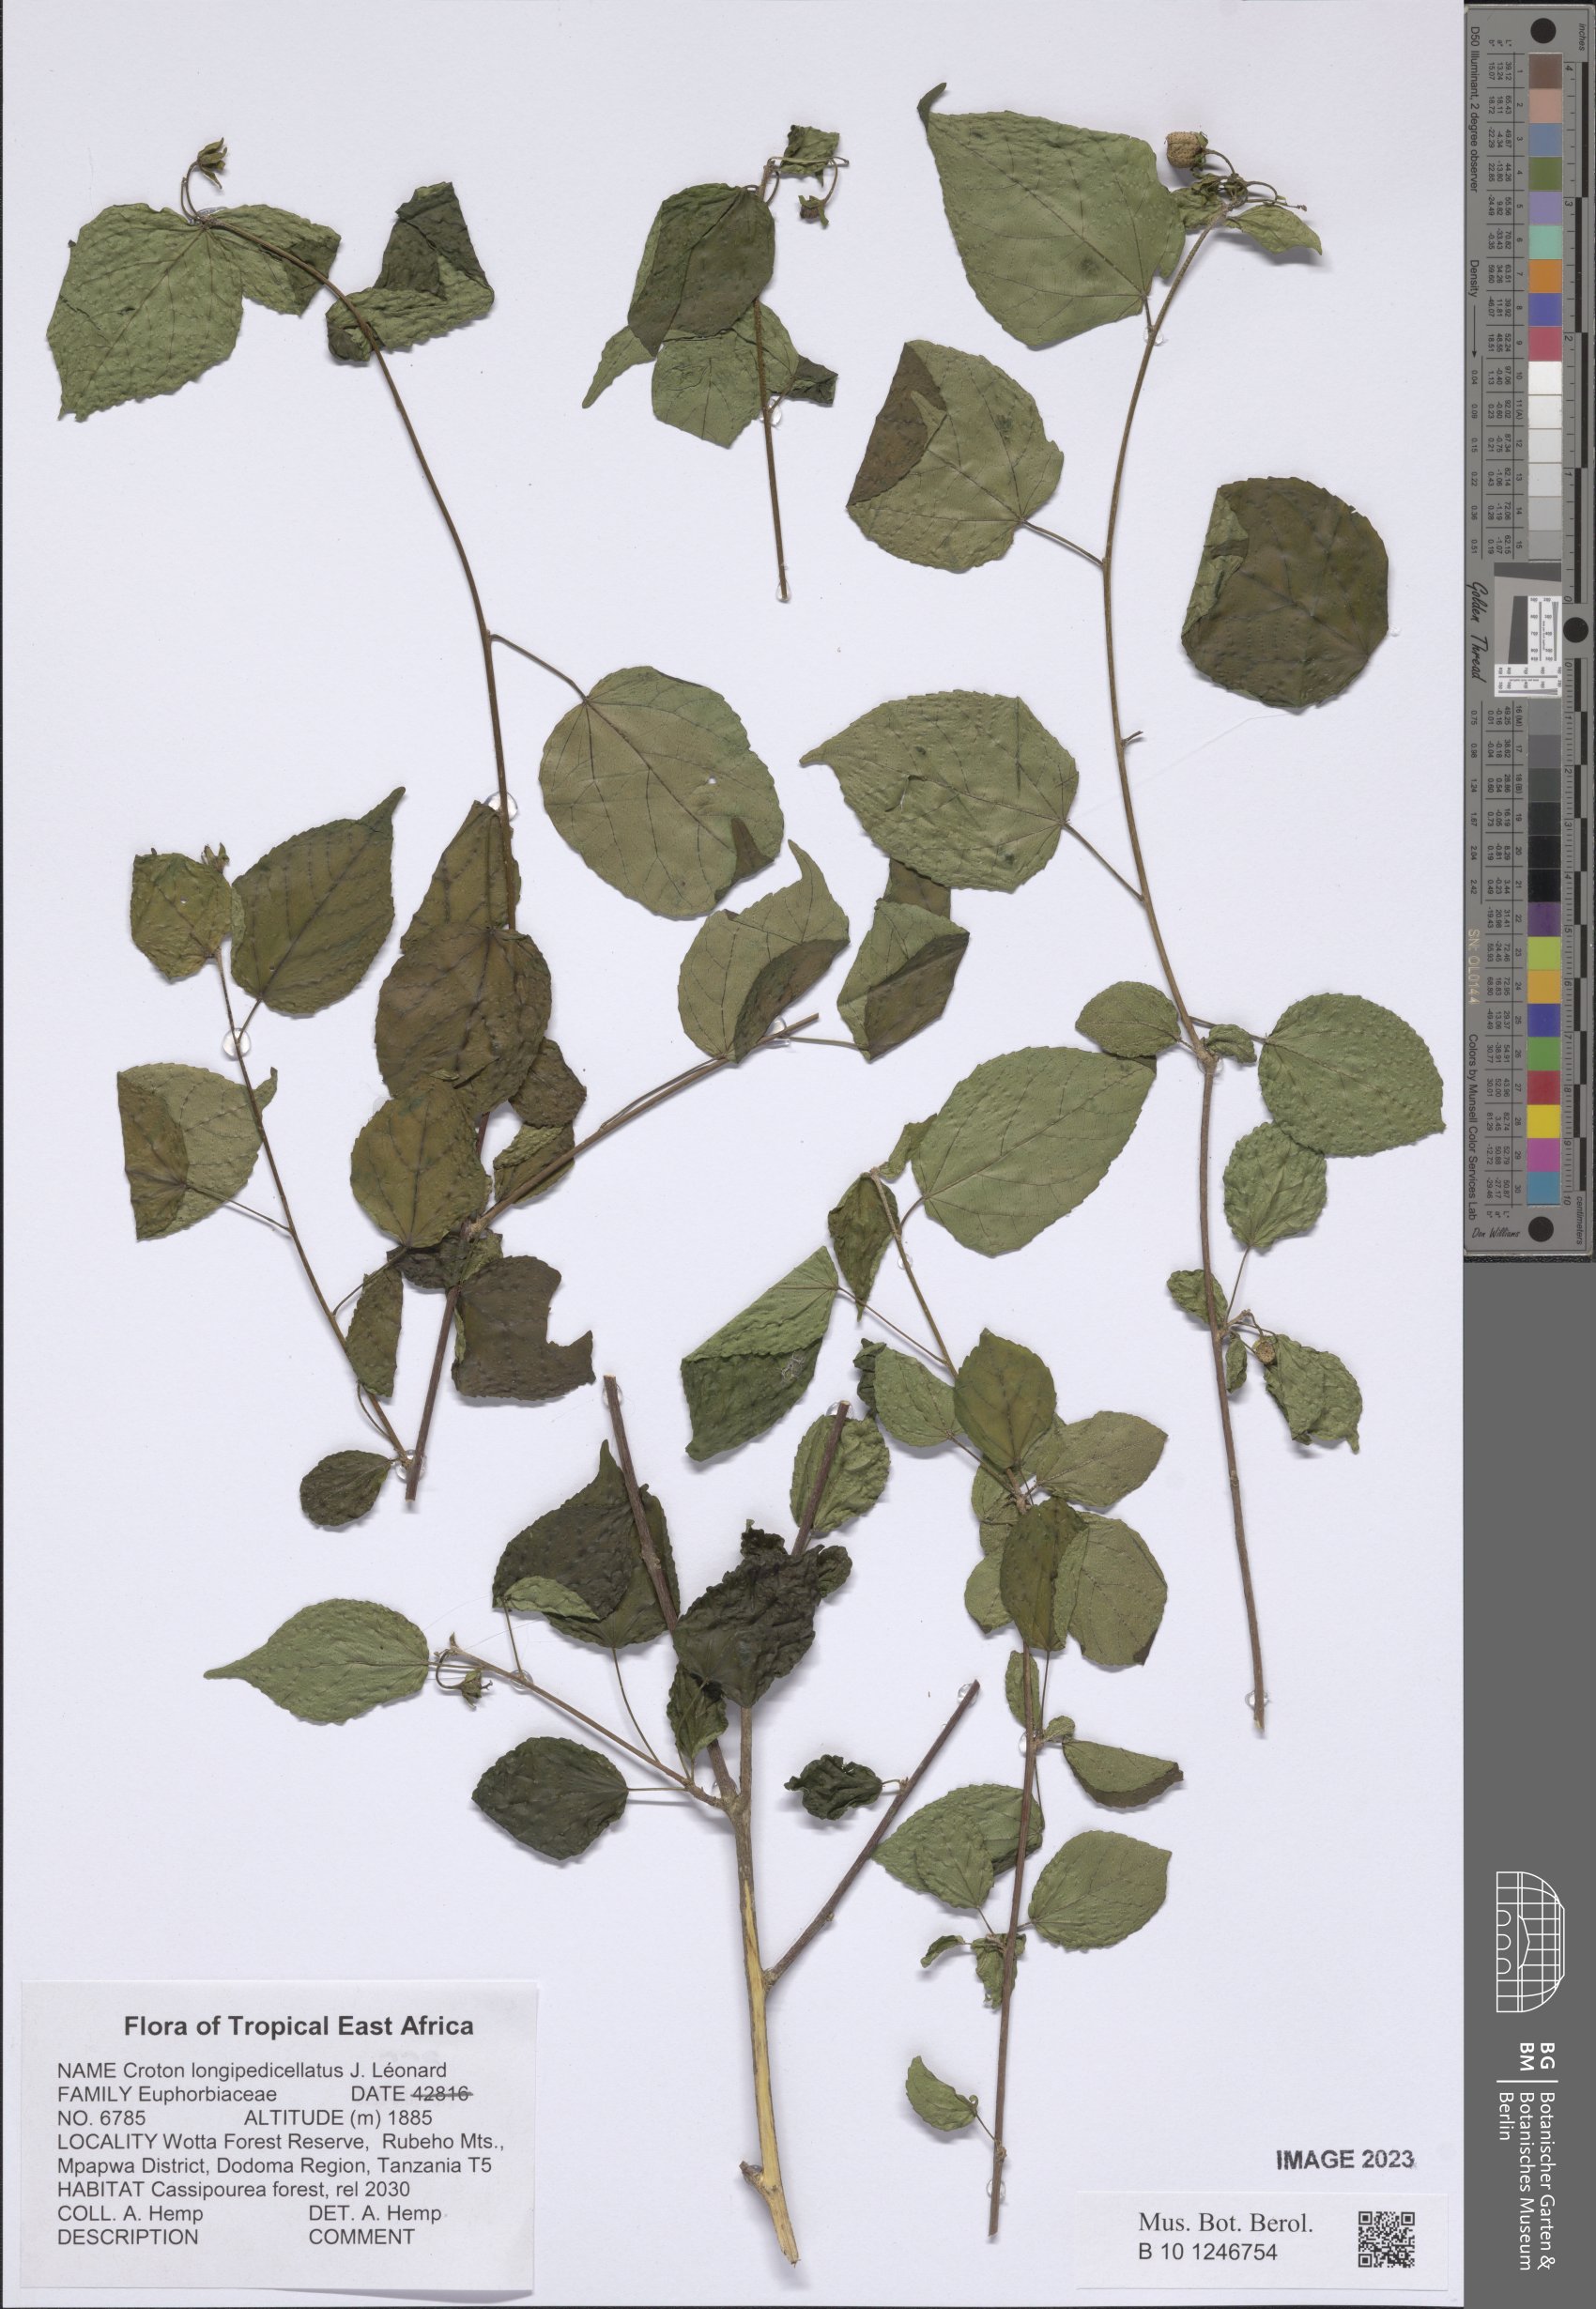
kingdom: Plantae
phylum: Tracheophyta
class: Magnoliopsida
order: Malpighiales
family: Euphorbiaceae
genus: Croton
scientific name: Croton longipedicellatus
